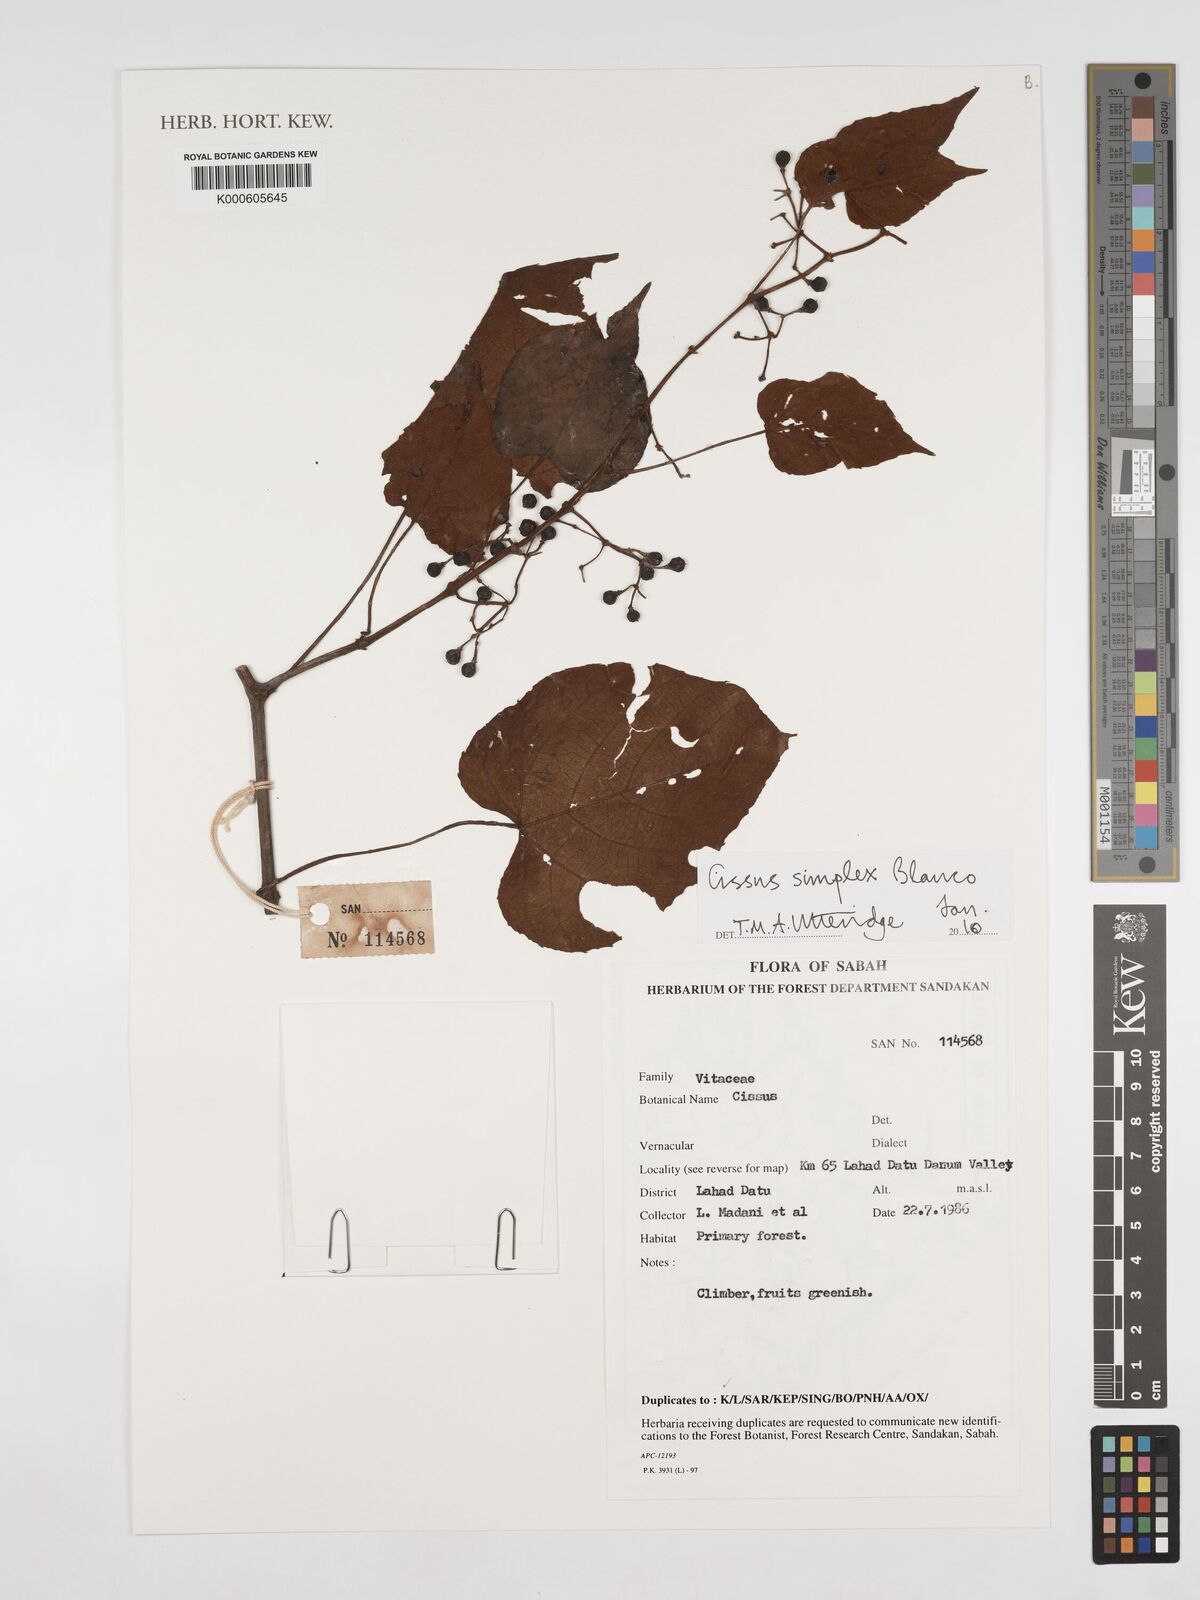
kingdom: Plantae
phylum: Tracheophyta
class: Magnoliopsida
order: Vitales
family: Vitaceae
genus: Cissus
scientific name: Cissus aristata
